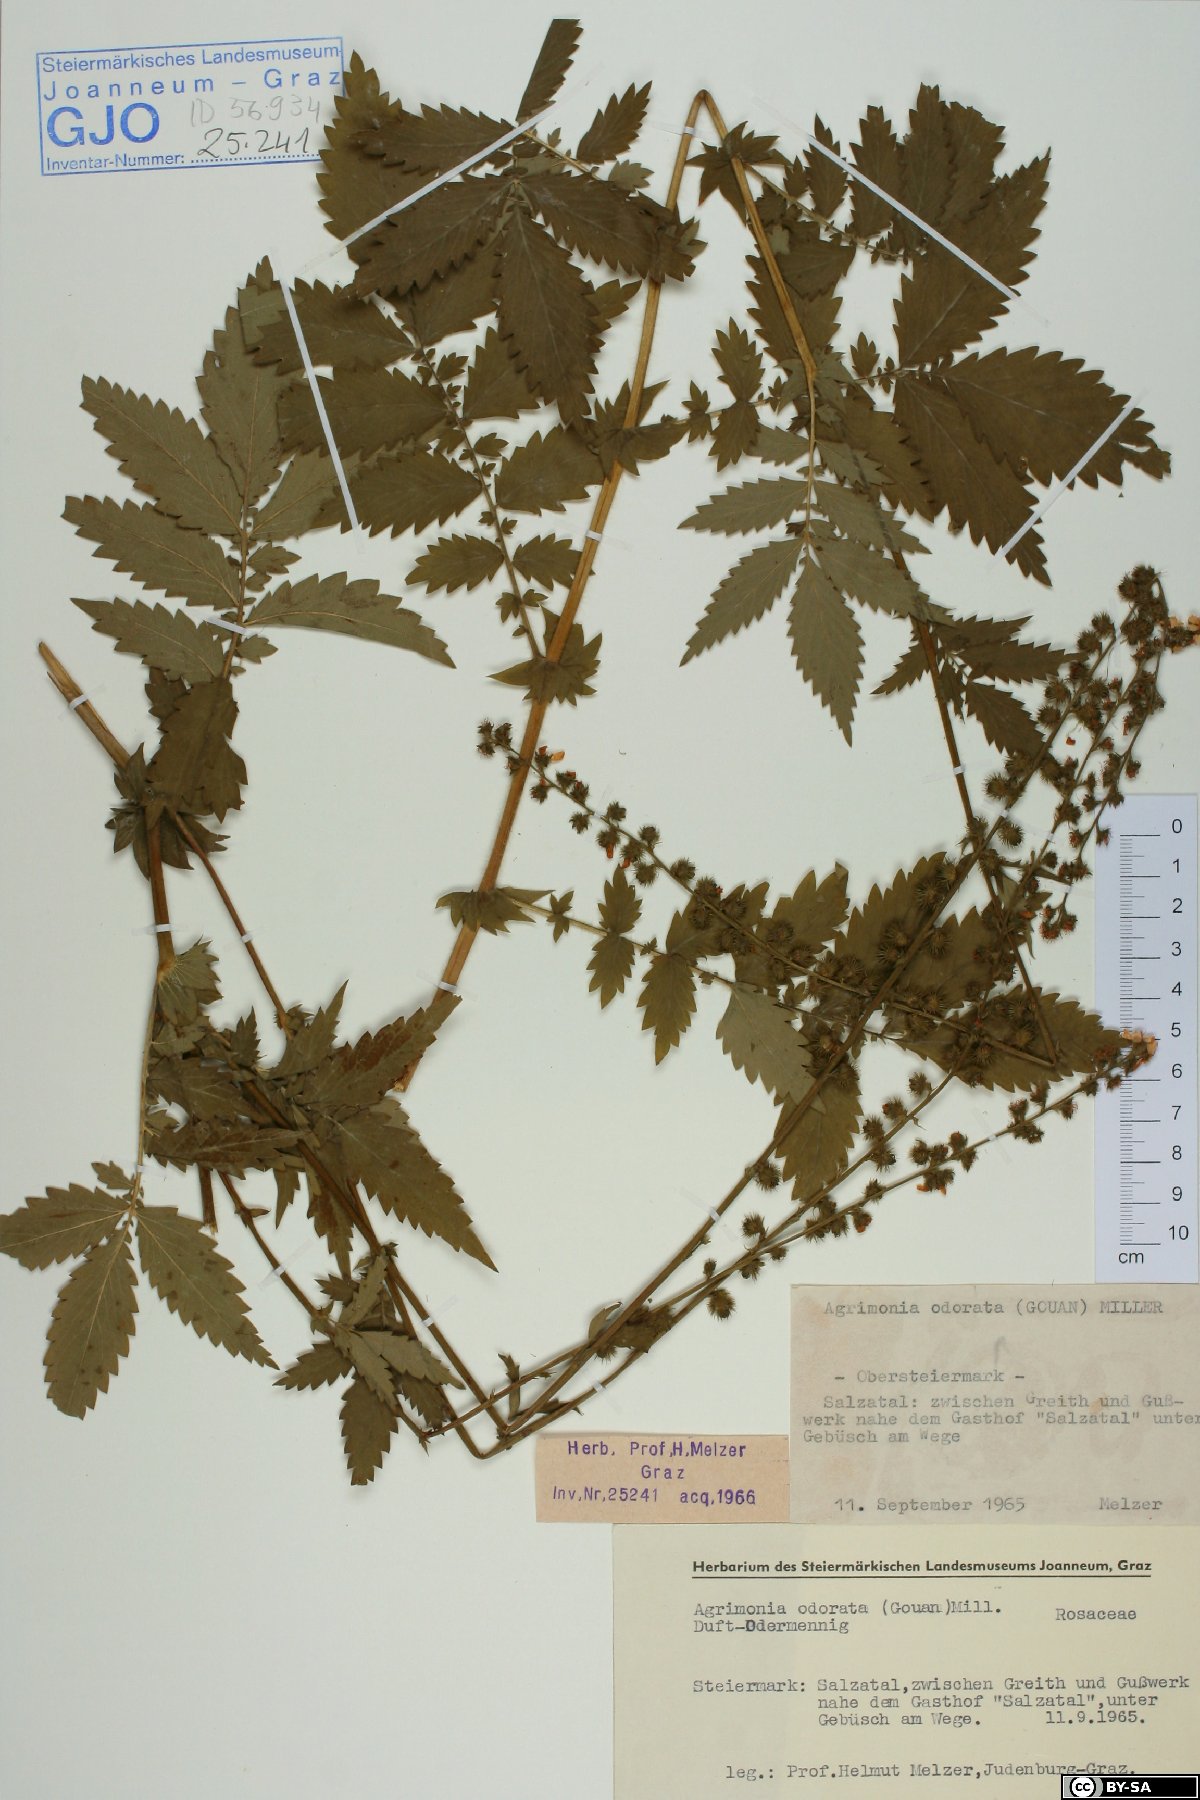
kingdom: Plantae
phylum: Tracheophyta
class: Magnoliopsida
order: Rosales
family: Rosaceae
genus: Agrimonia
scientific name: Agrimonia repens
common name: Creeping agrimony
